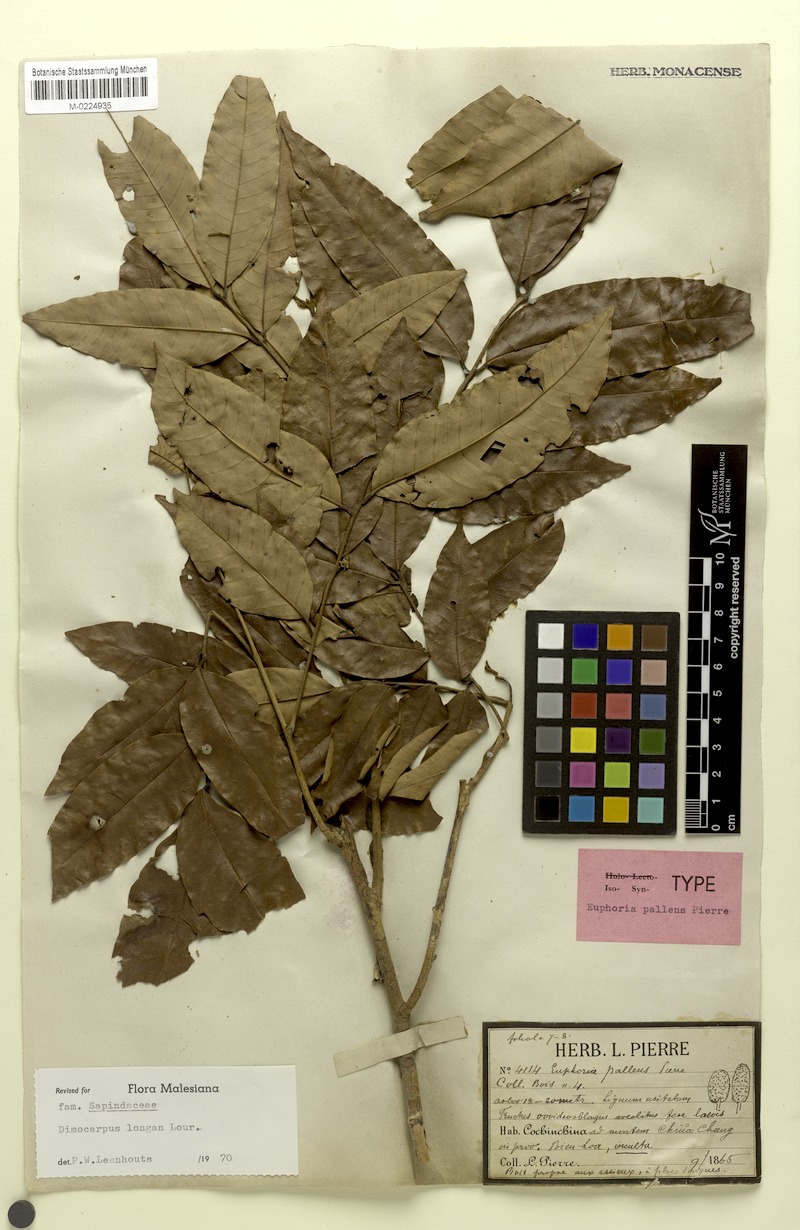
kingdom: Plantae
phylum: Tracheophyta
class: Magnoliopsida
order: Sapindales
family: Sapindaceae
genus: Dimocarpus
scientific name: Dimocarpus longan
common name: Longan
